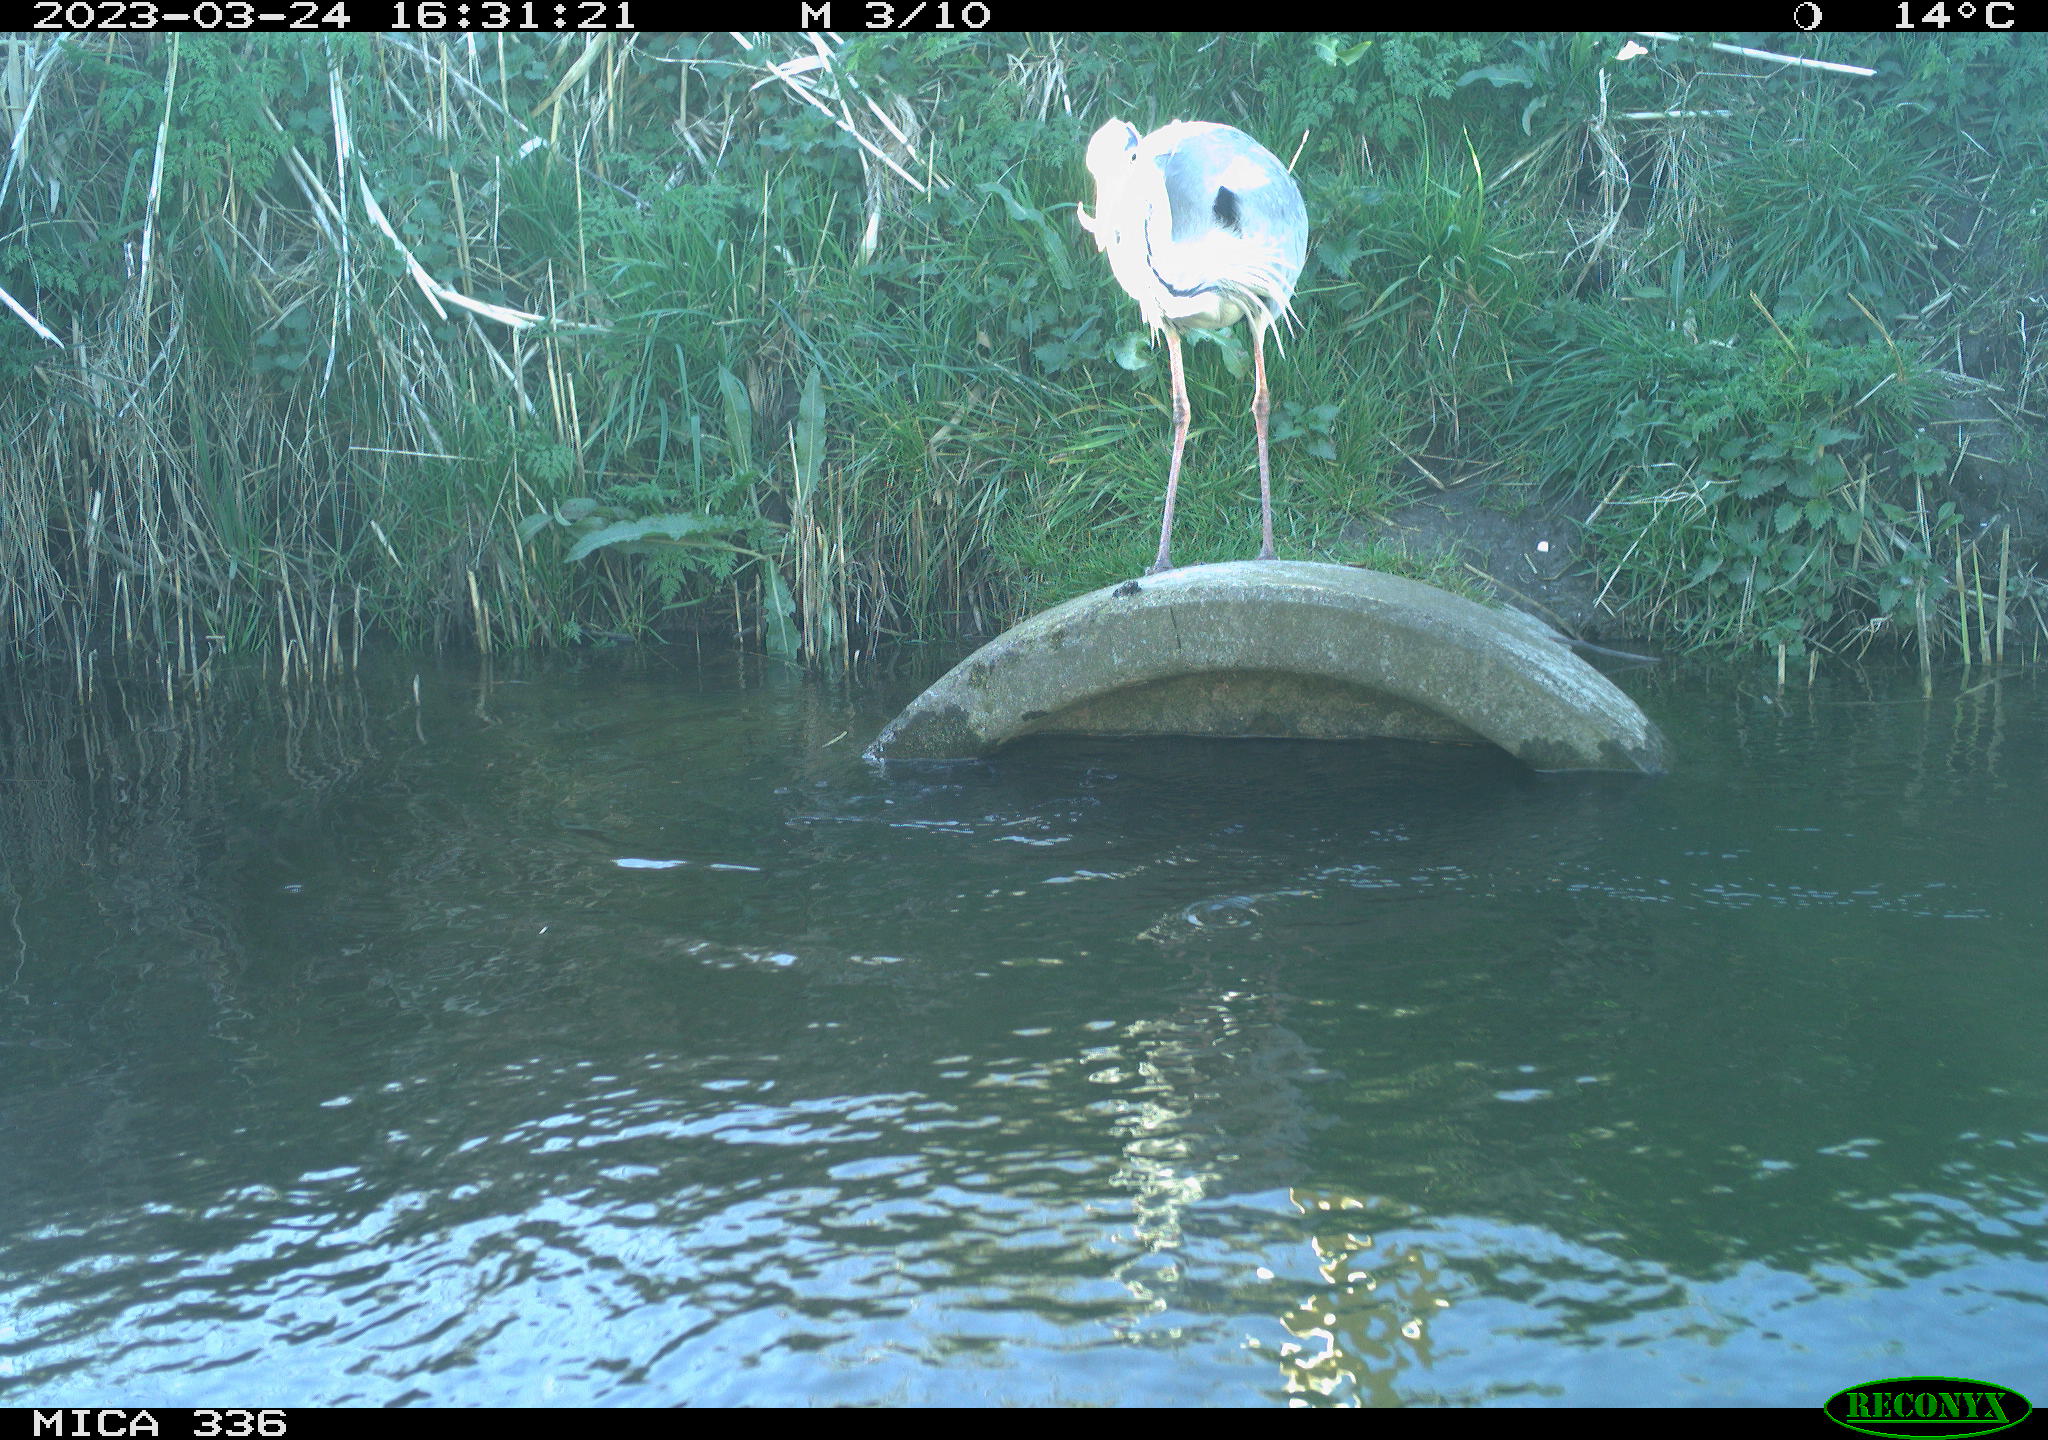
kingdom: Animalia
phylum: Chordata
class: Aves
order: Pelecaniformes
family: Ardeidae
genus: Ardea
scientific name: Ardea
